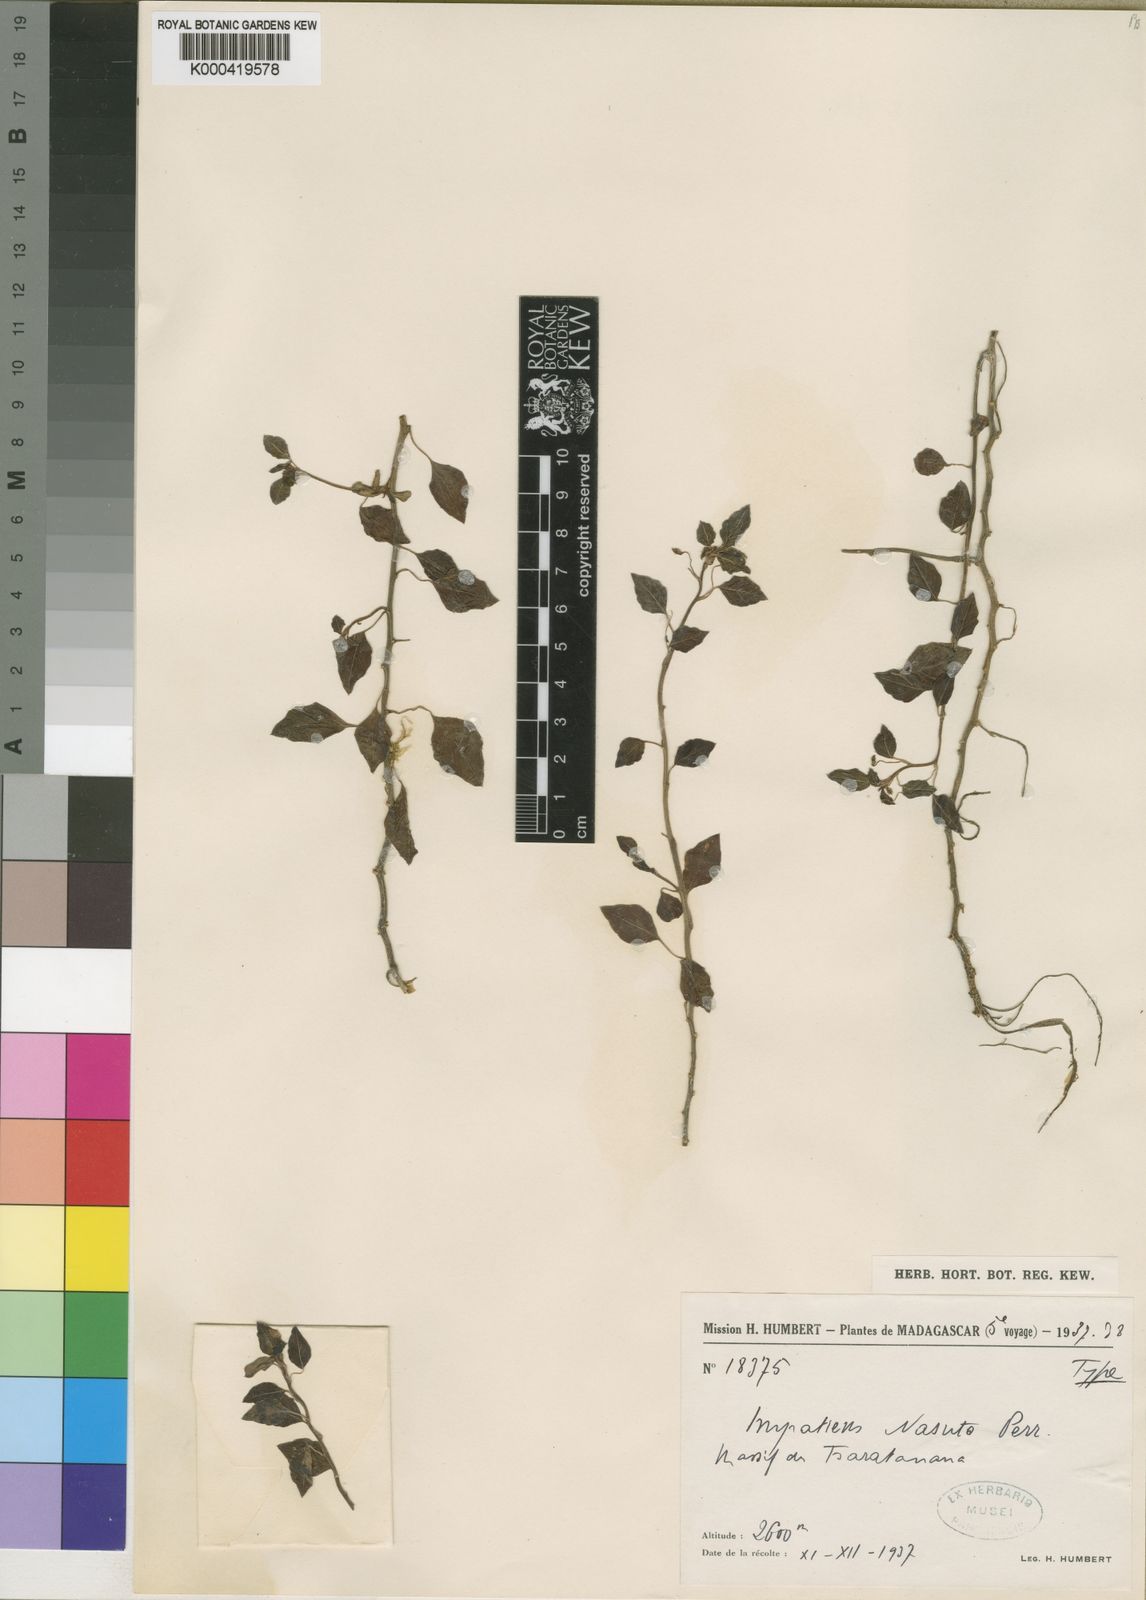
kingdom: Plantae
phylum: Tracheophyta
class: Magnoliopsida
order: Ericales
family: Balsaminaceae
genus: Impatiens
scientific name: Impatiens
